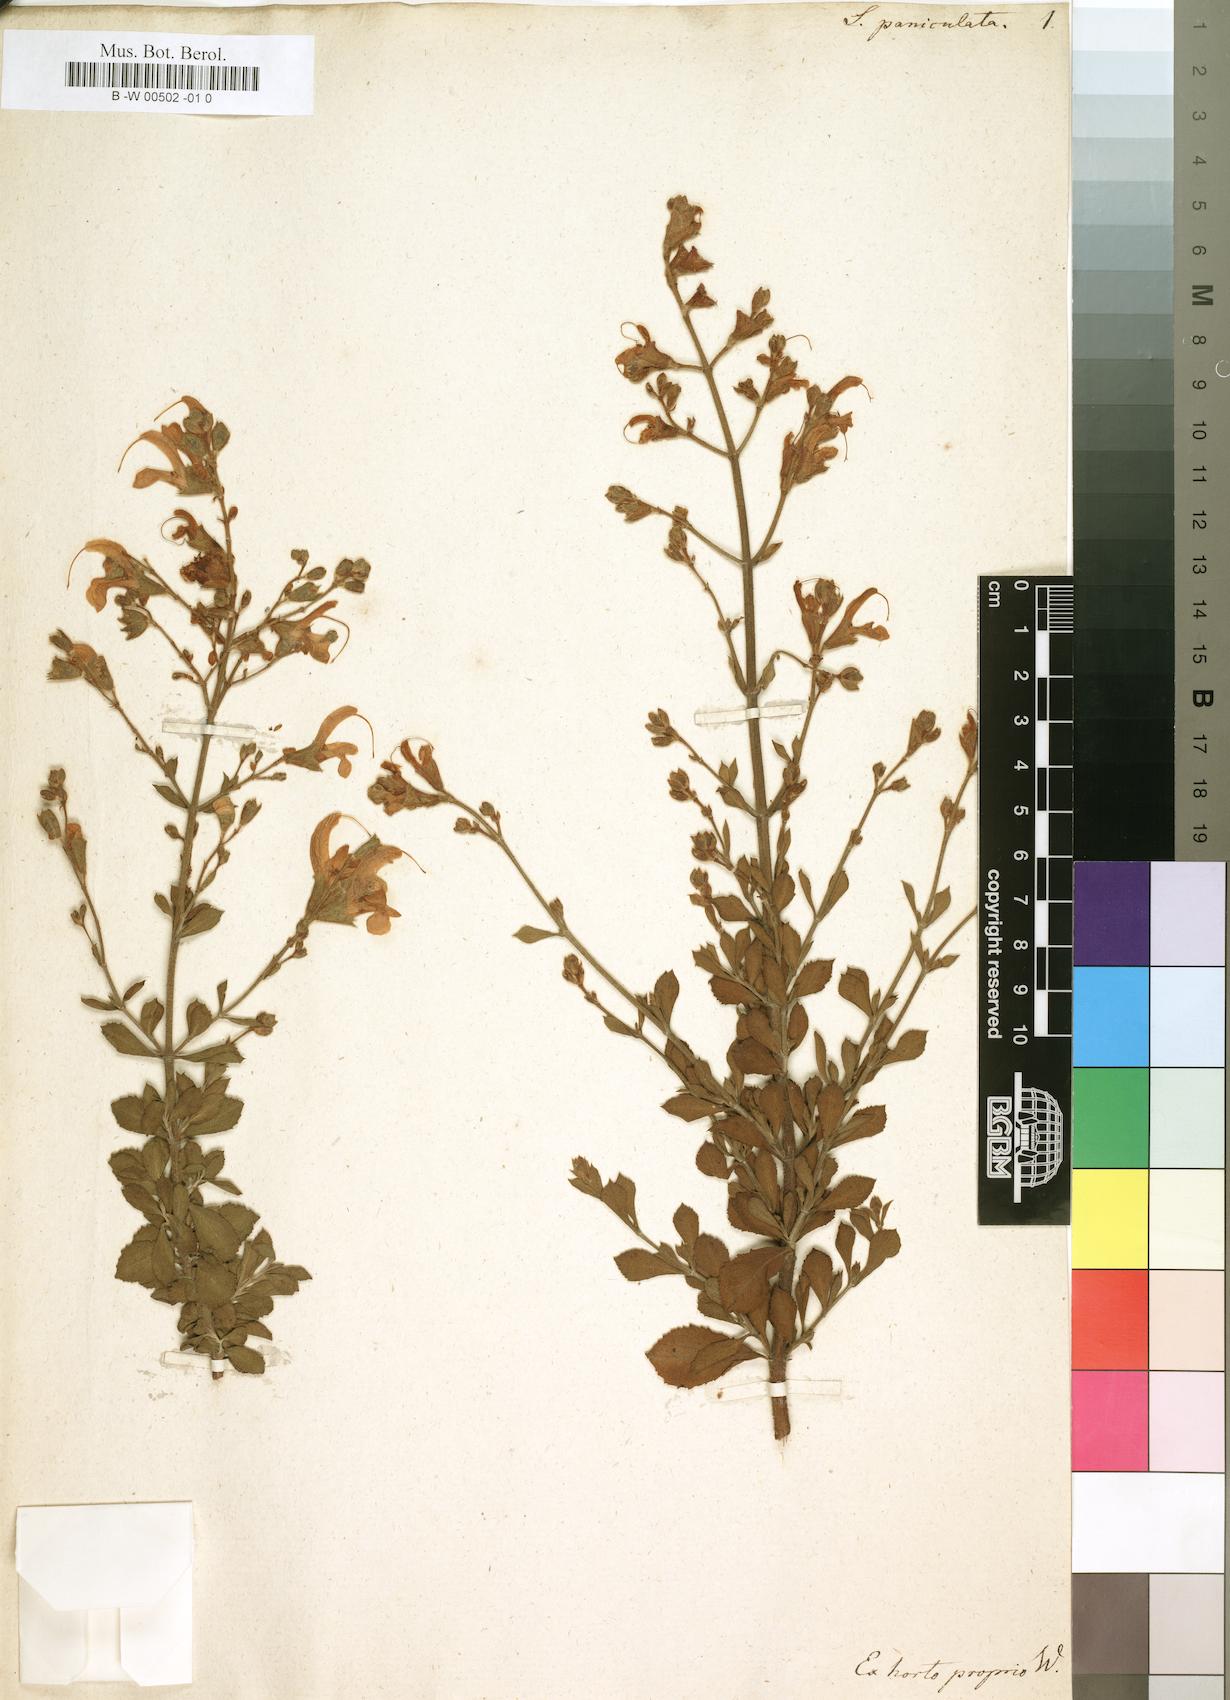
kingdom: Plantae
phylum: Tracheophyta
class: Magnoliopsida
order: Lamiales
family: Lamiaceae
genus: Salvia
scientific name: Salvia chamelaeagnea
